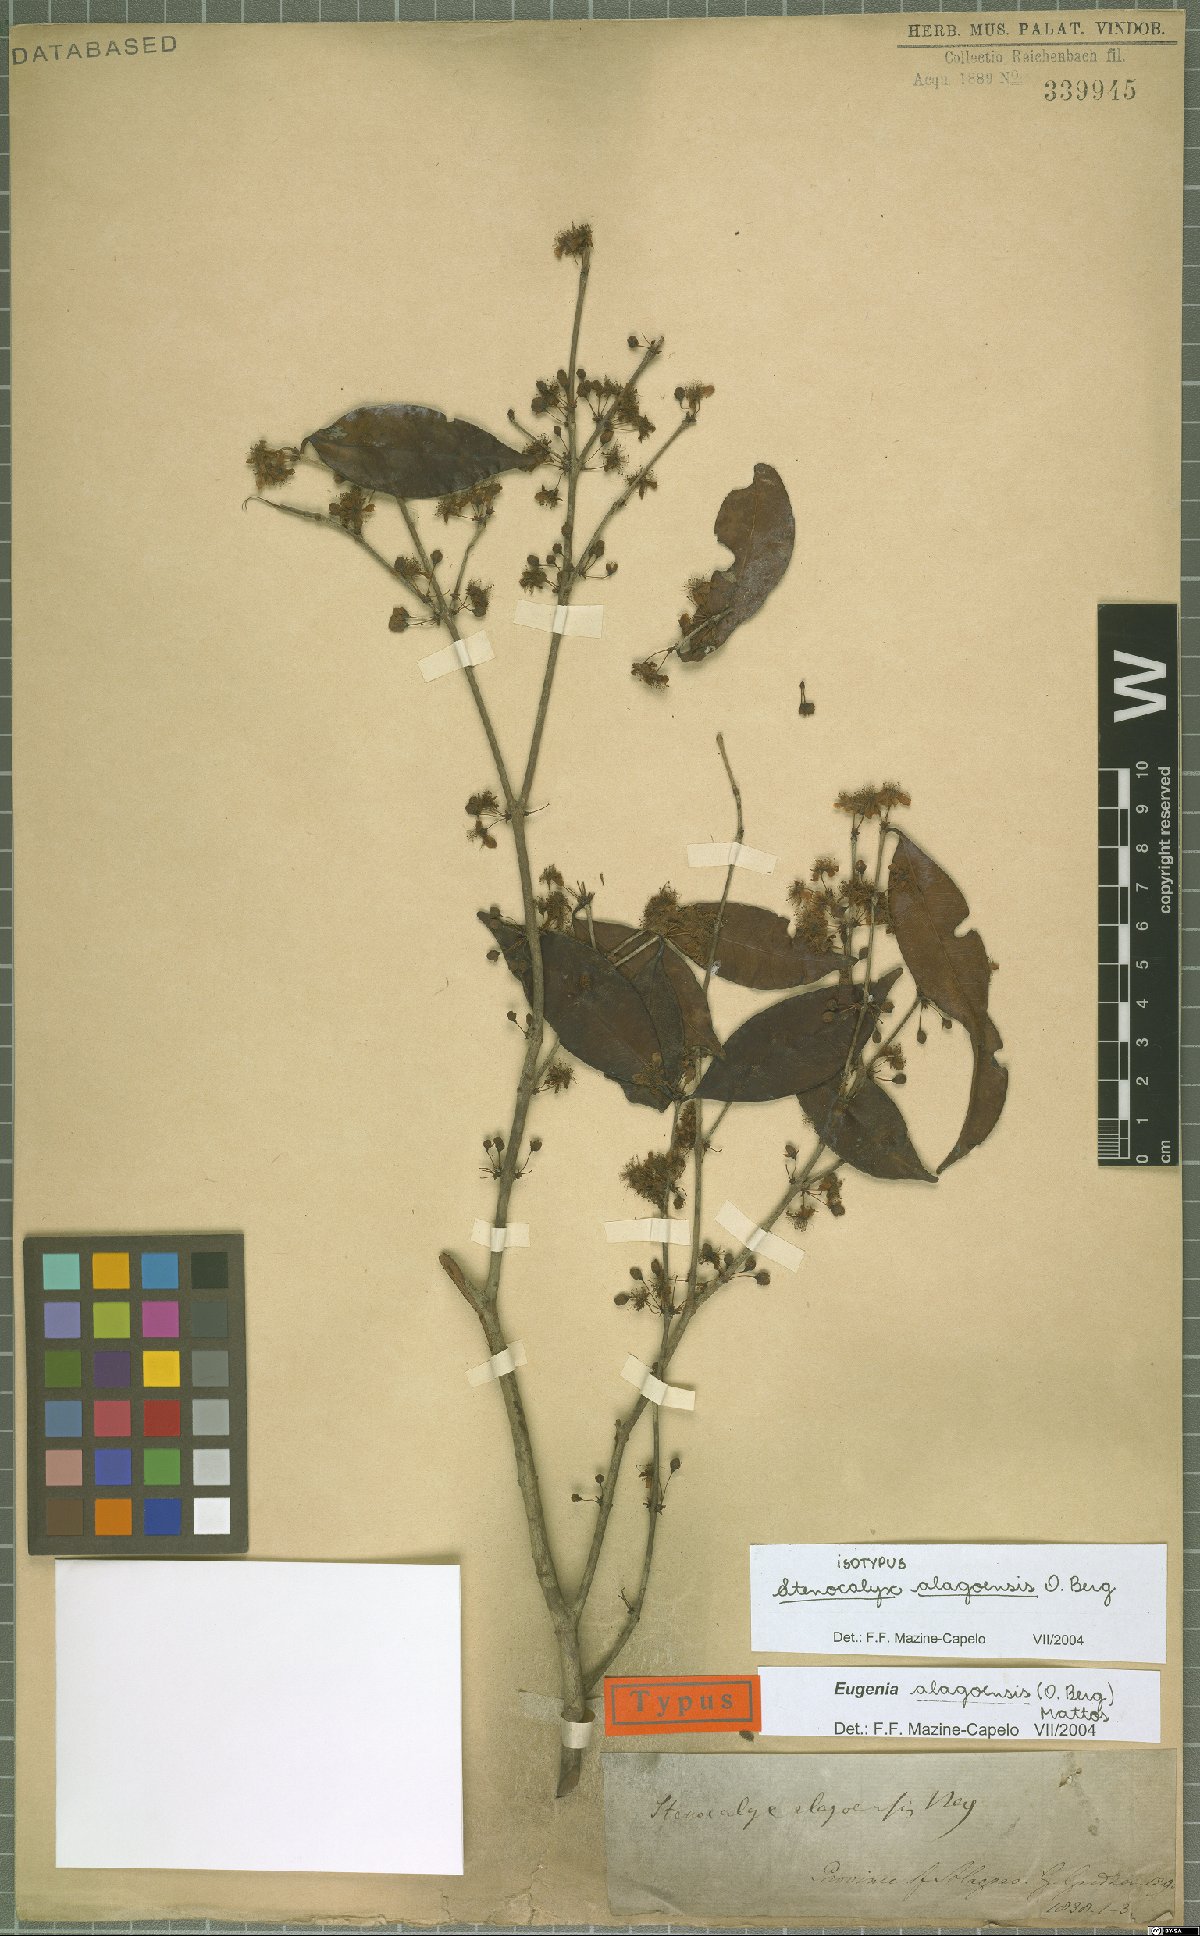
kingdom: Plantae
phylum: Tracheophyta
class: Magnoliopsida
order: Myrtales
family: Myrtaceae
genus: Eugenia
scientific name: Eugenia alagoensis
